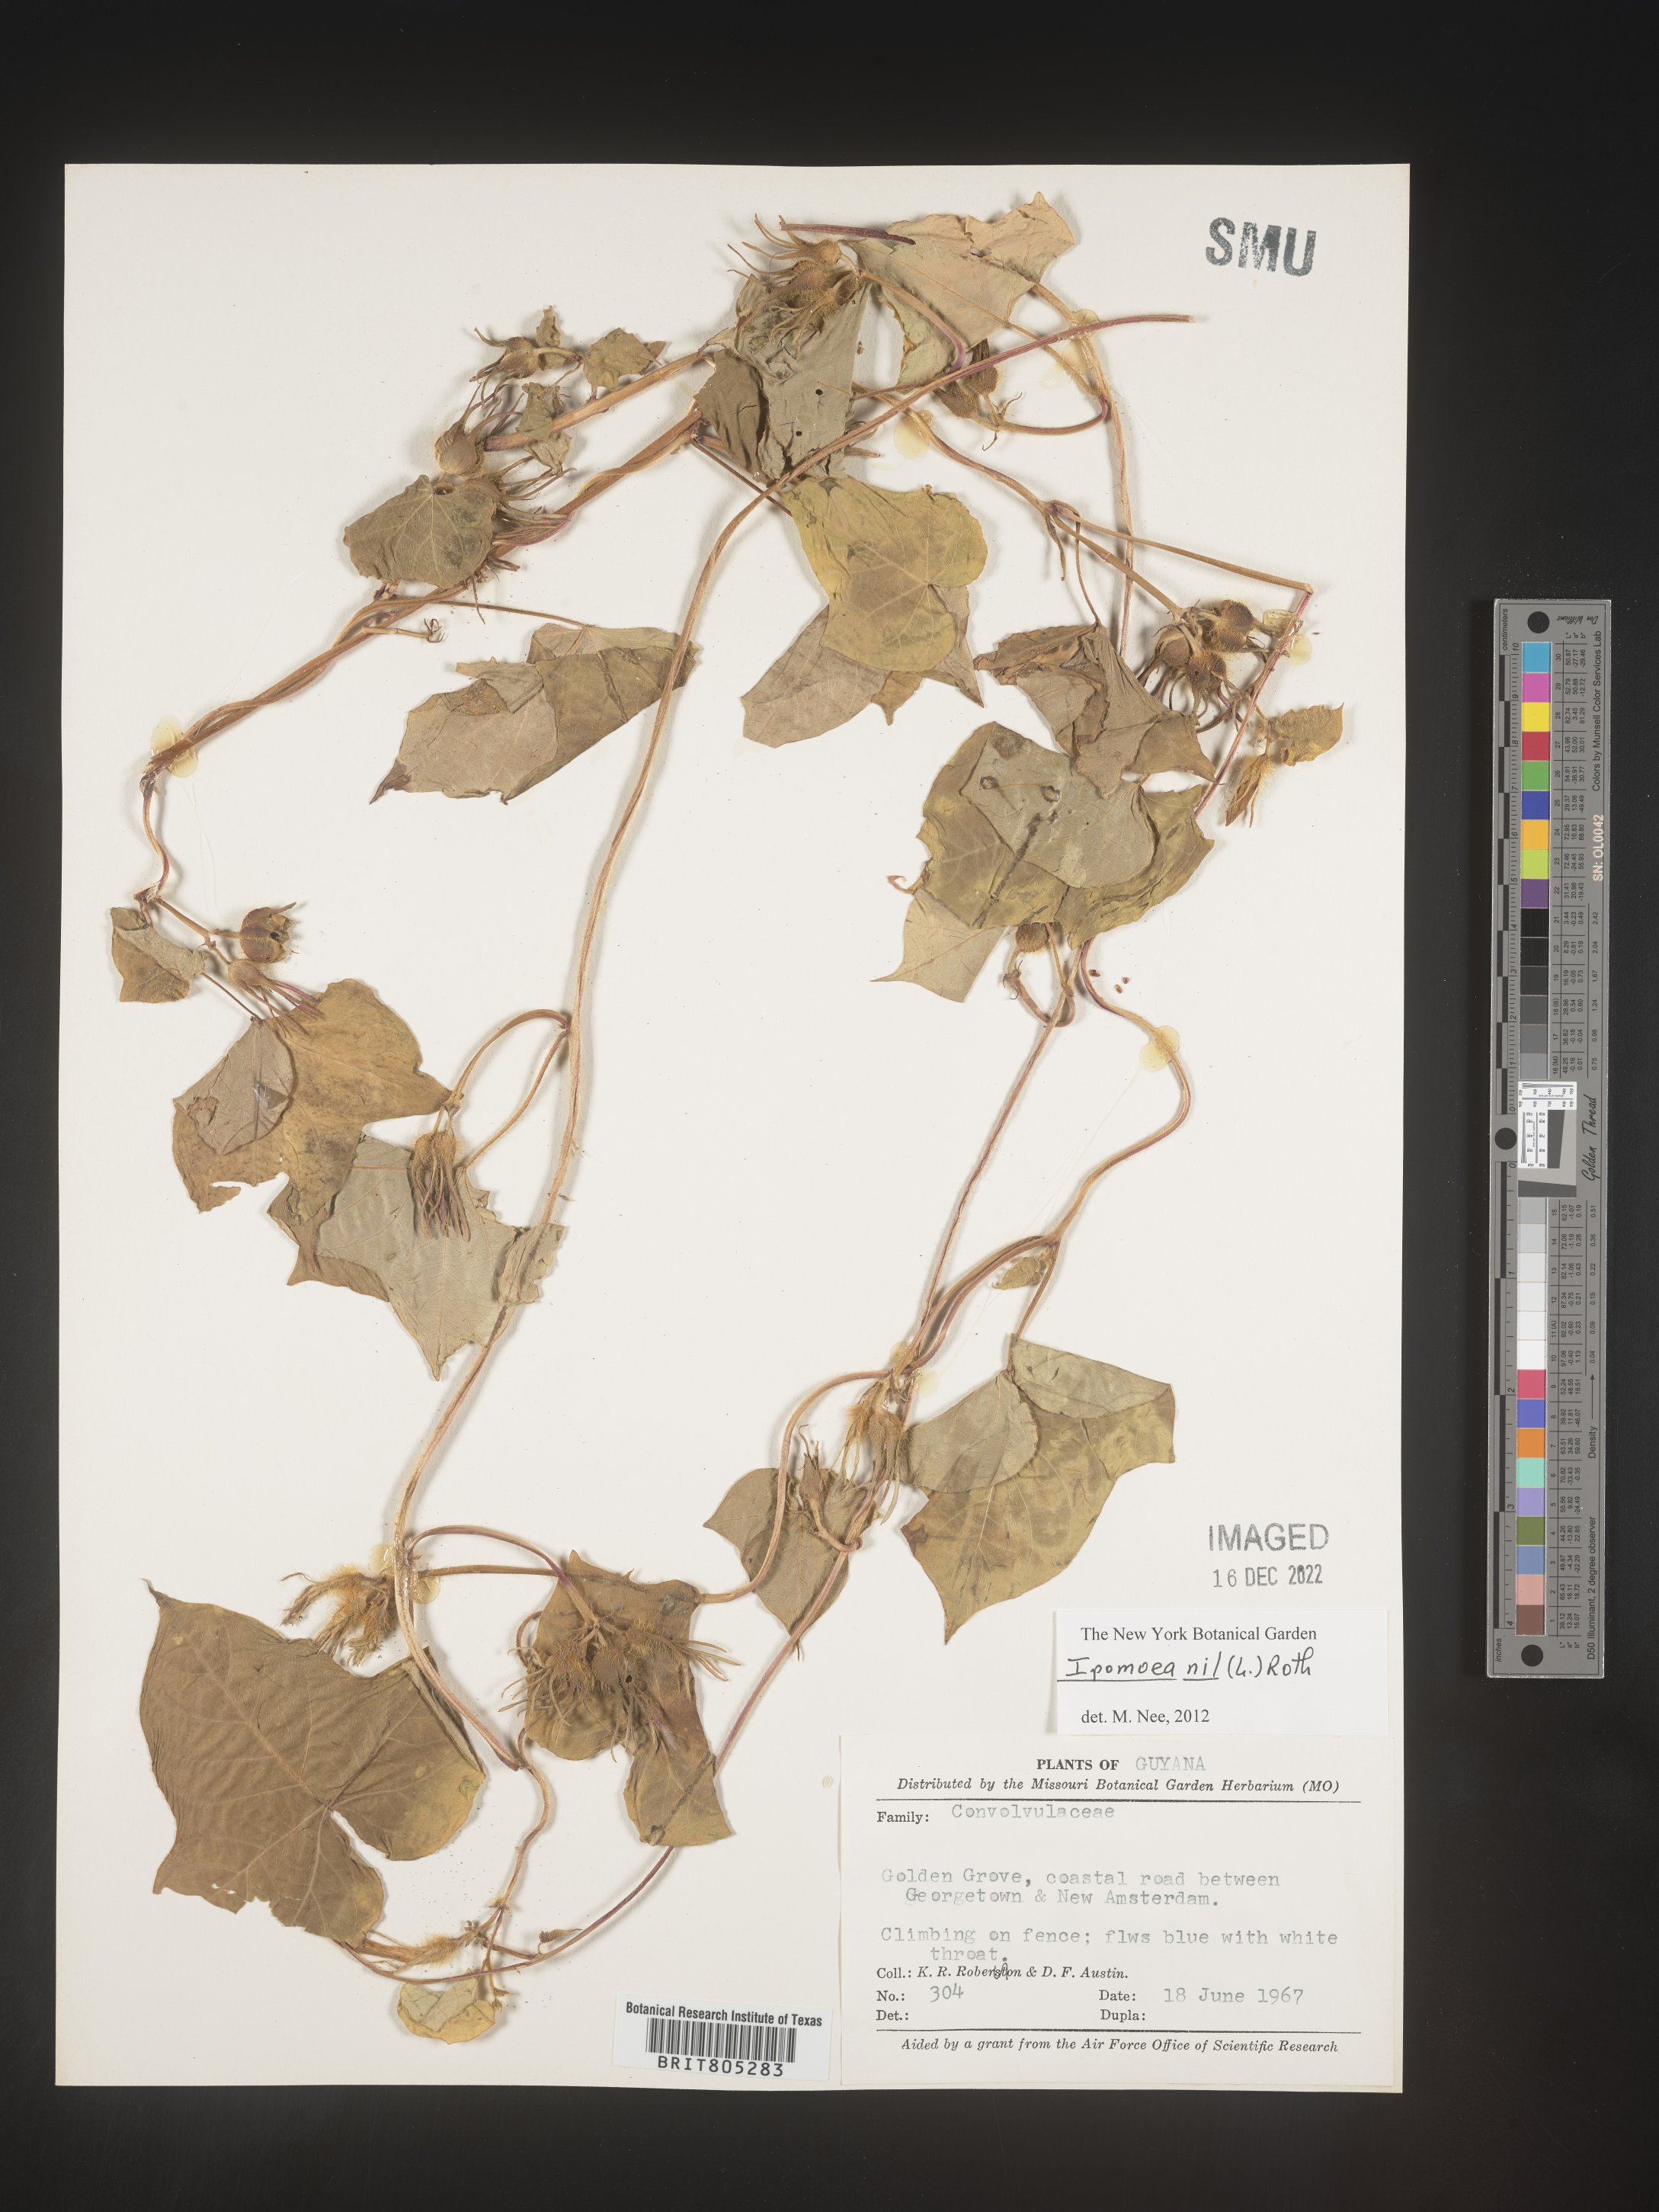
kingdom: Plantae
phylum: Tracheophyta
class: Magnoliopsida
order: Solanales
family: Convolvulaceae
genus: Ipomoea
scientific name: Ipomoea
